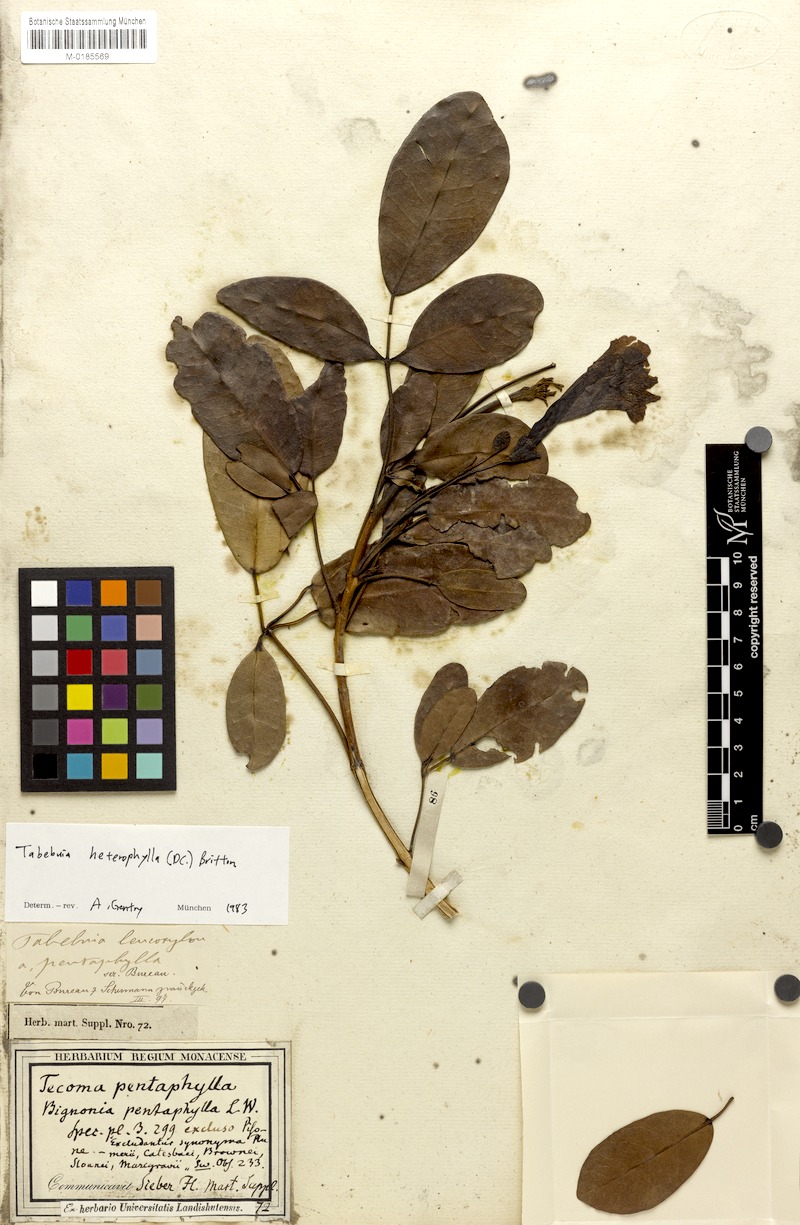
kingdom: Plantae
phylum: Tracheophyta
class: Magnoliopsida
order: Lamiales
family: Bignoniaceae
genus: Tabebuia
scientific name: Tabebuia heterophylla
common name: White cedar
